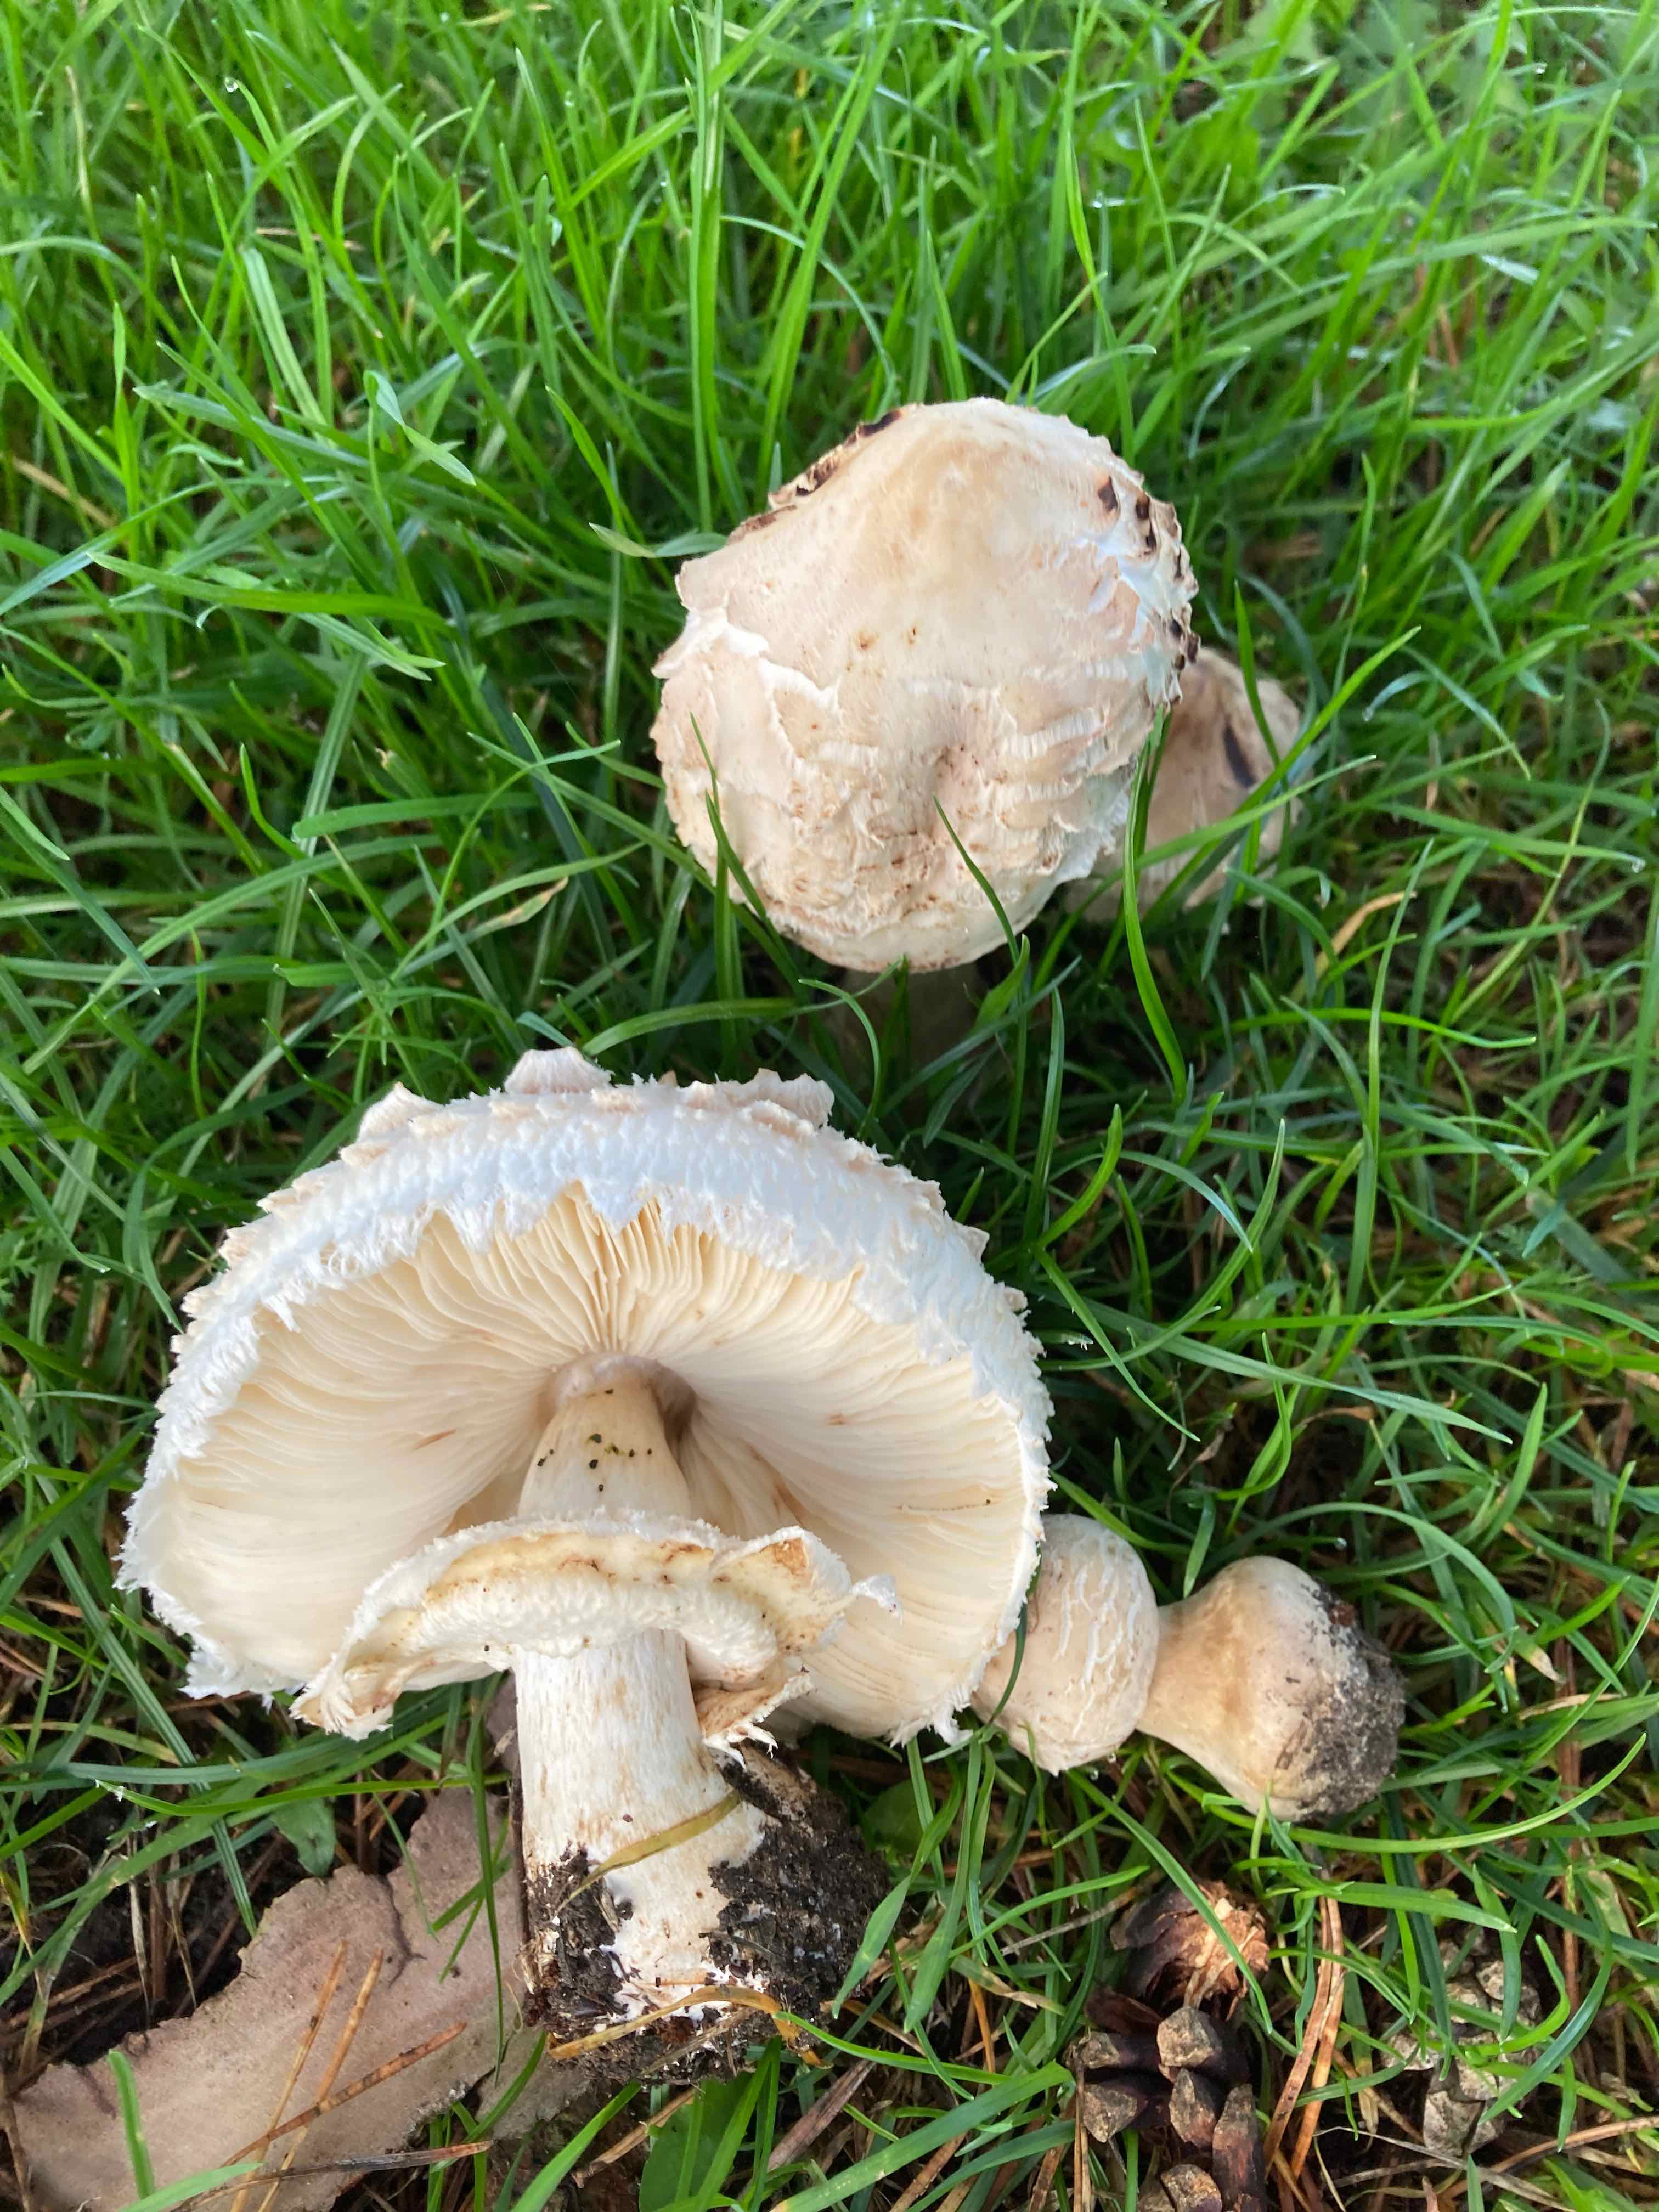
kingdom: Fungi
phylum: Basidiomycota
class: Agaricomycetes
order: Agaricales
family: Agaricaceae
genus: Chlorophyllum
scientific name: Chlorophyllum rhacodes
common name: ægte rabarberhat
